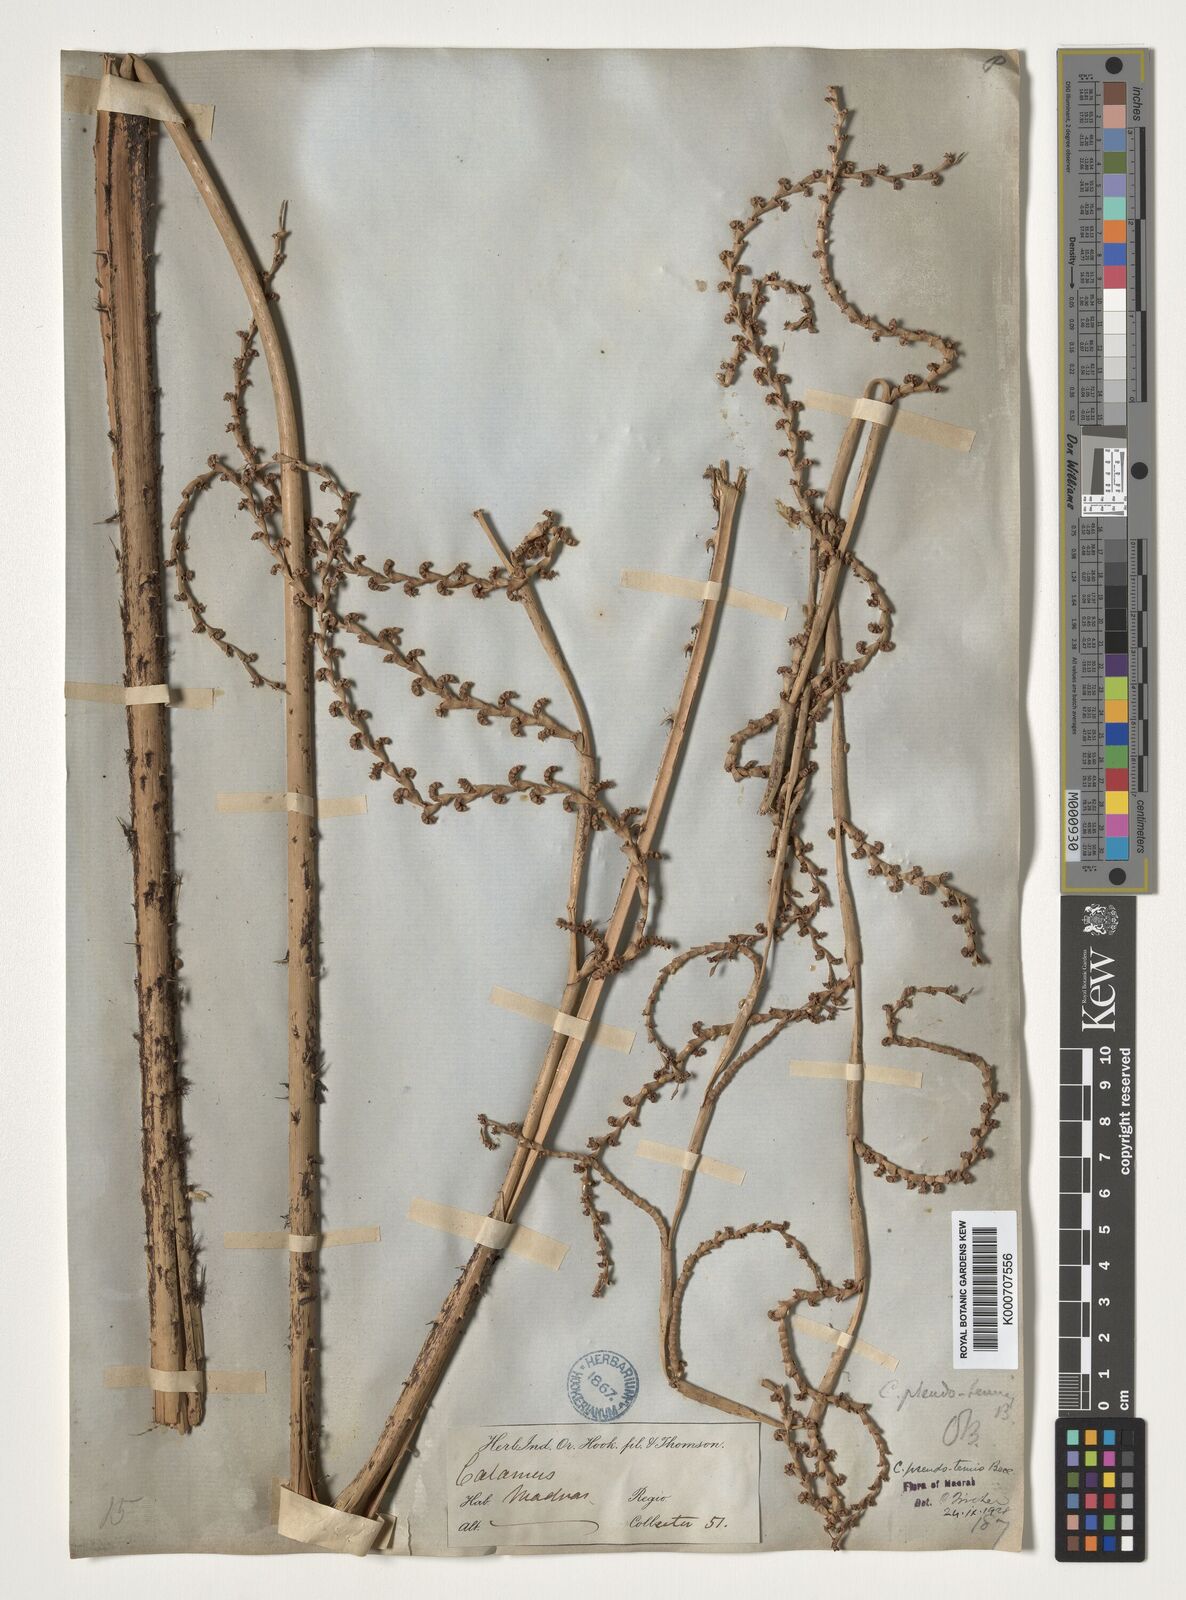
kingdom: Plantae
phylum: Tracheophyta
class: Liliopsida
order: Arecales
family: Arecaceae
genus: Calamus
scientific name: Calamus pseudotenuis
